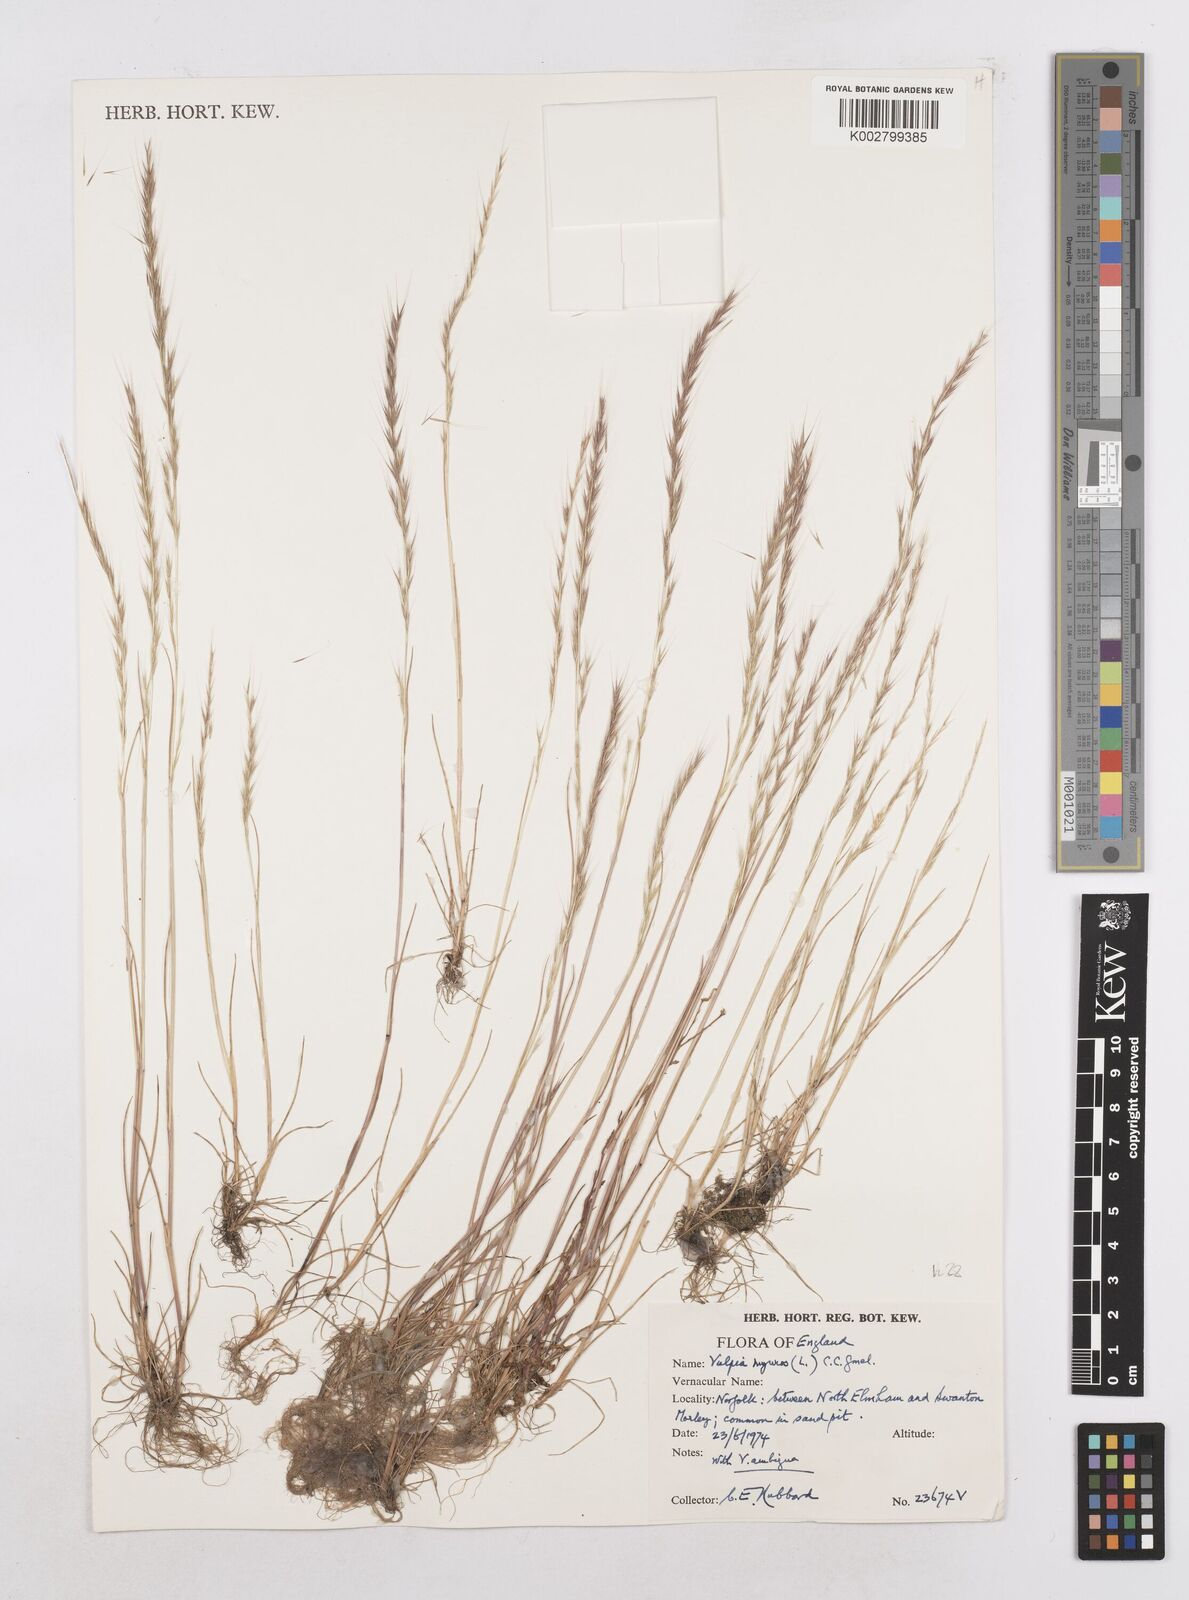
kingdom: Plantae
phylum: Tracheophyta
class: Liliopsida
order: Poales
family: Poaceae
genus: Festuca
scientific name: Festuca myuros
